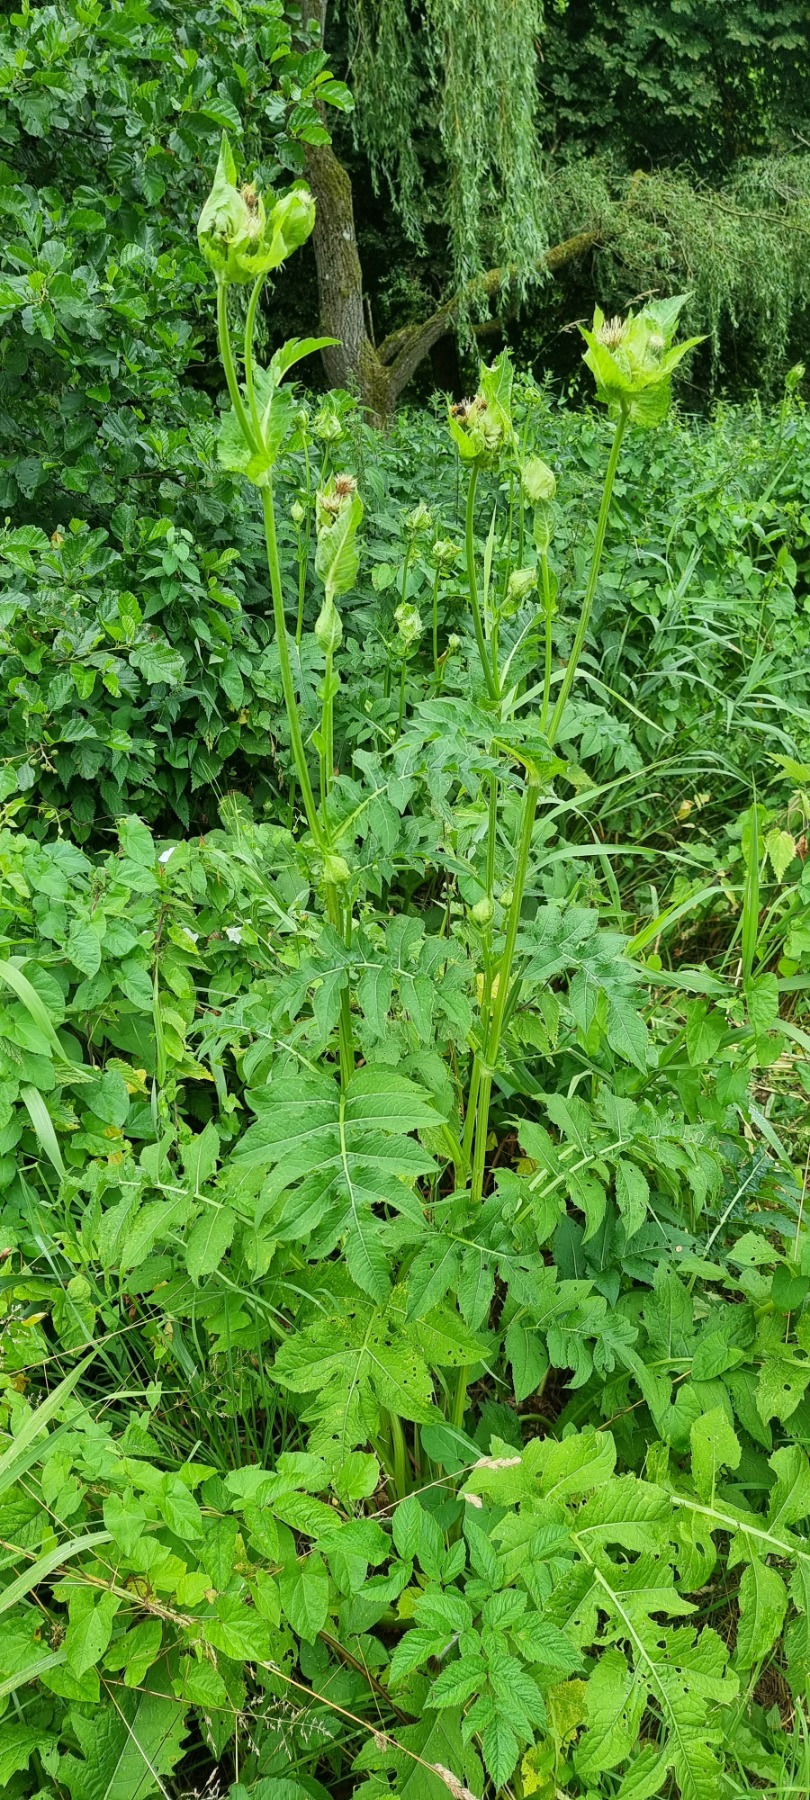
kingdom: Plantae
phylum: Tracheophyta
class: Magnoliopsida
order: Asterales
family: Asteraceae
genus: Cirsium
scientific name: Cirsium oleraceum
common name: Kål-tidsel
